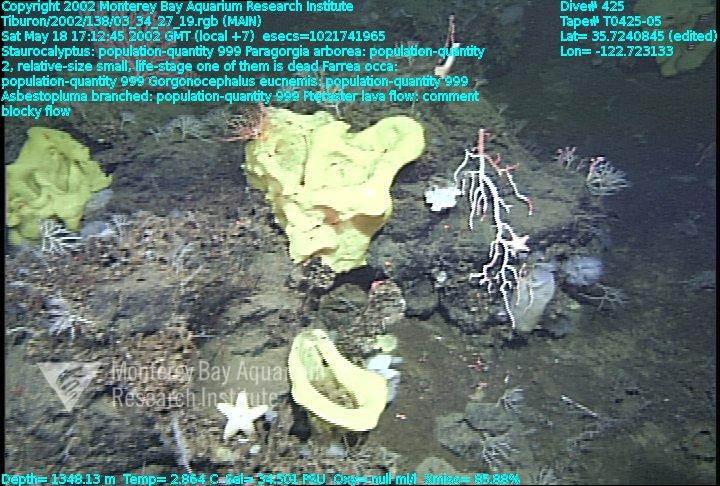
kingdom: Animalia
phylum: Porifera
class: Demospongiae
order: Poecilosclerida
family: Cladorhizidae
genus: Asbestopluma
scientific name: Asbestopluma monticola
